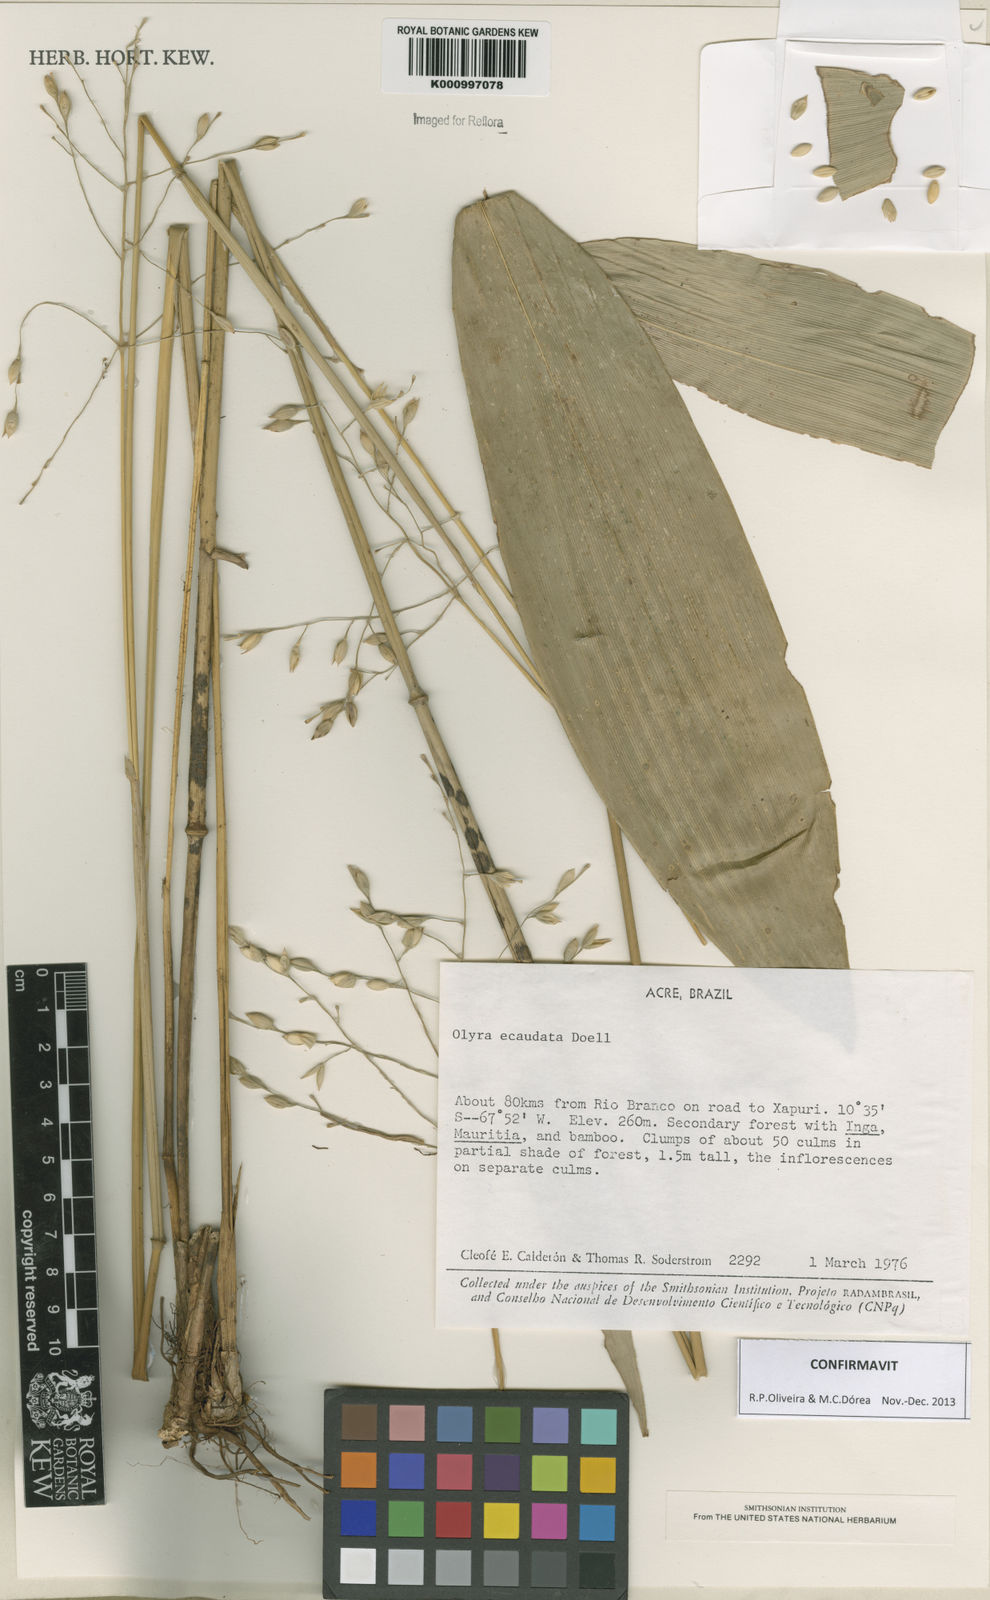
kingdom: Plantae
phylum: Tracheophyta
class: Liliopsida
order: Poales
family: Poaceae
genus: Olyra
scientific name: Olyra
